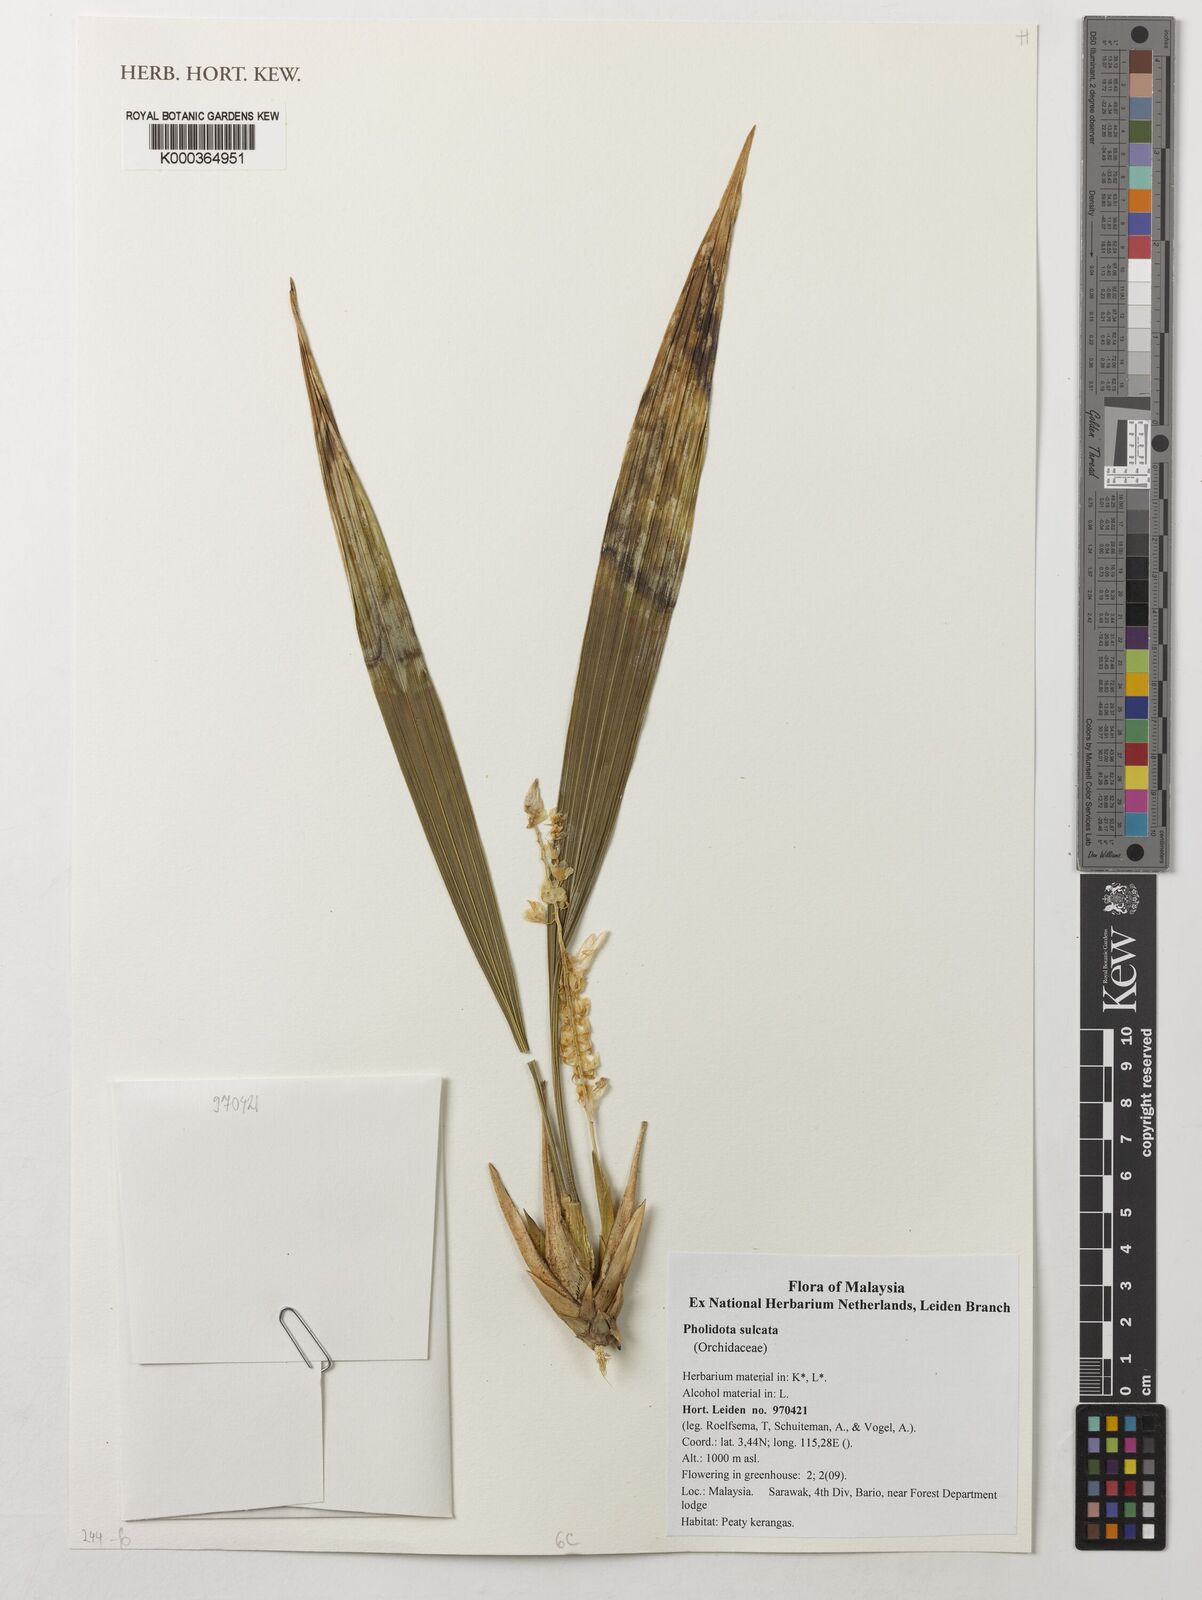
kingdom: Plantae
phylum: Tracheophyta
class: Liliopsida
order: Asparagales
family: Orchidaceae
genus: Coelogyne
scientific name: Coelogyne edii
